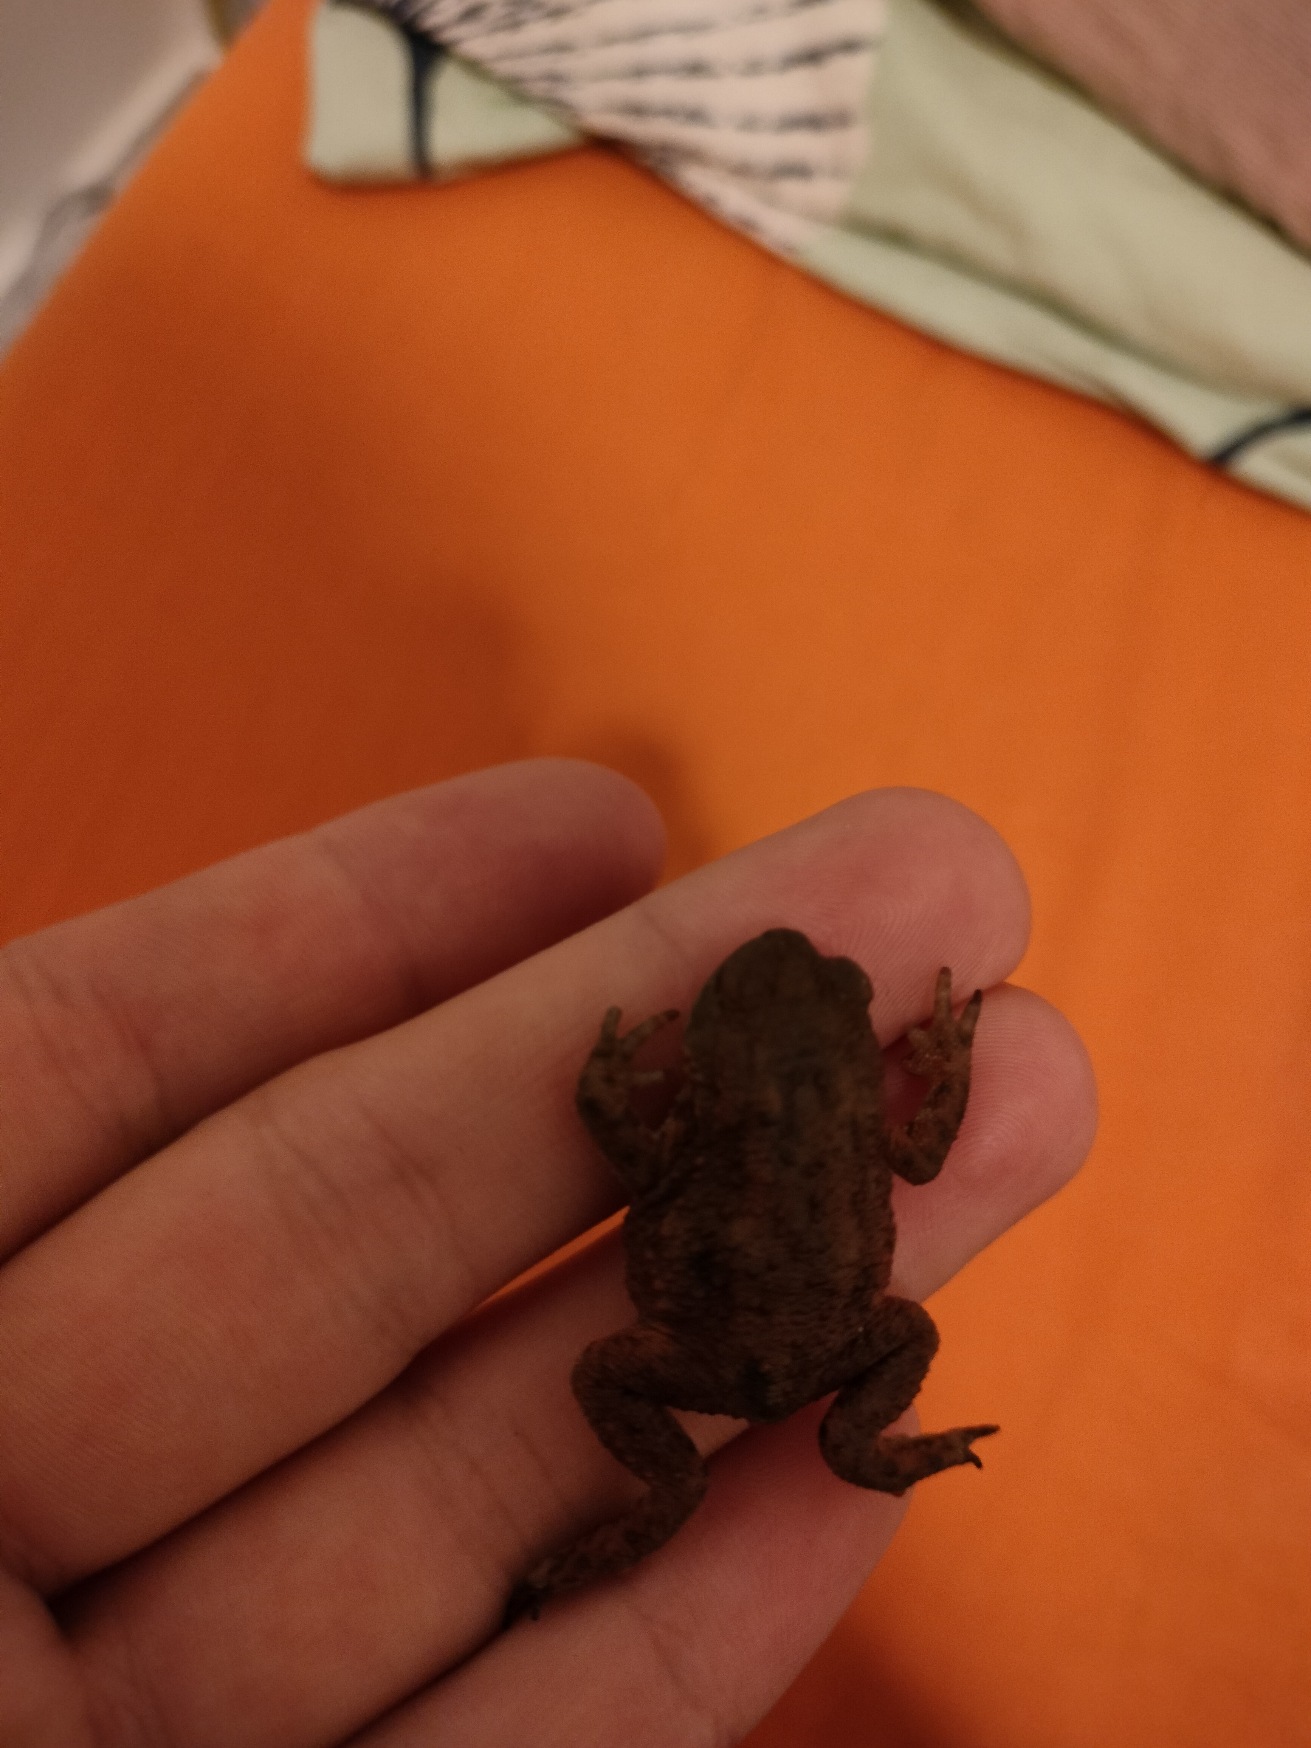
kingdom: Animalia
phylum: Chordata
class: Amphibia
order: Anura
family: Bufonidae
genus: Bufo
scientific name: Bufo bufo
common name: Skrubtudse
